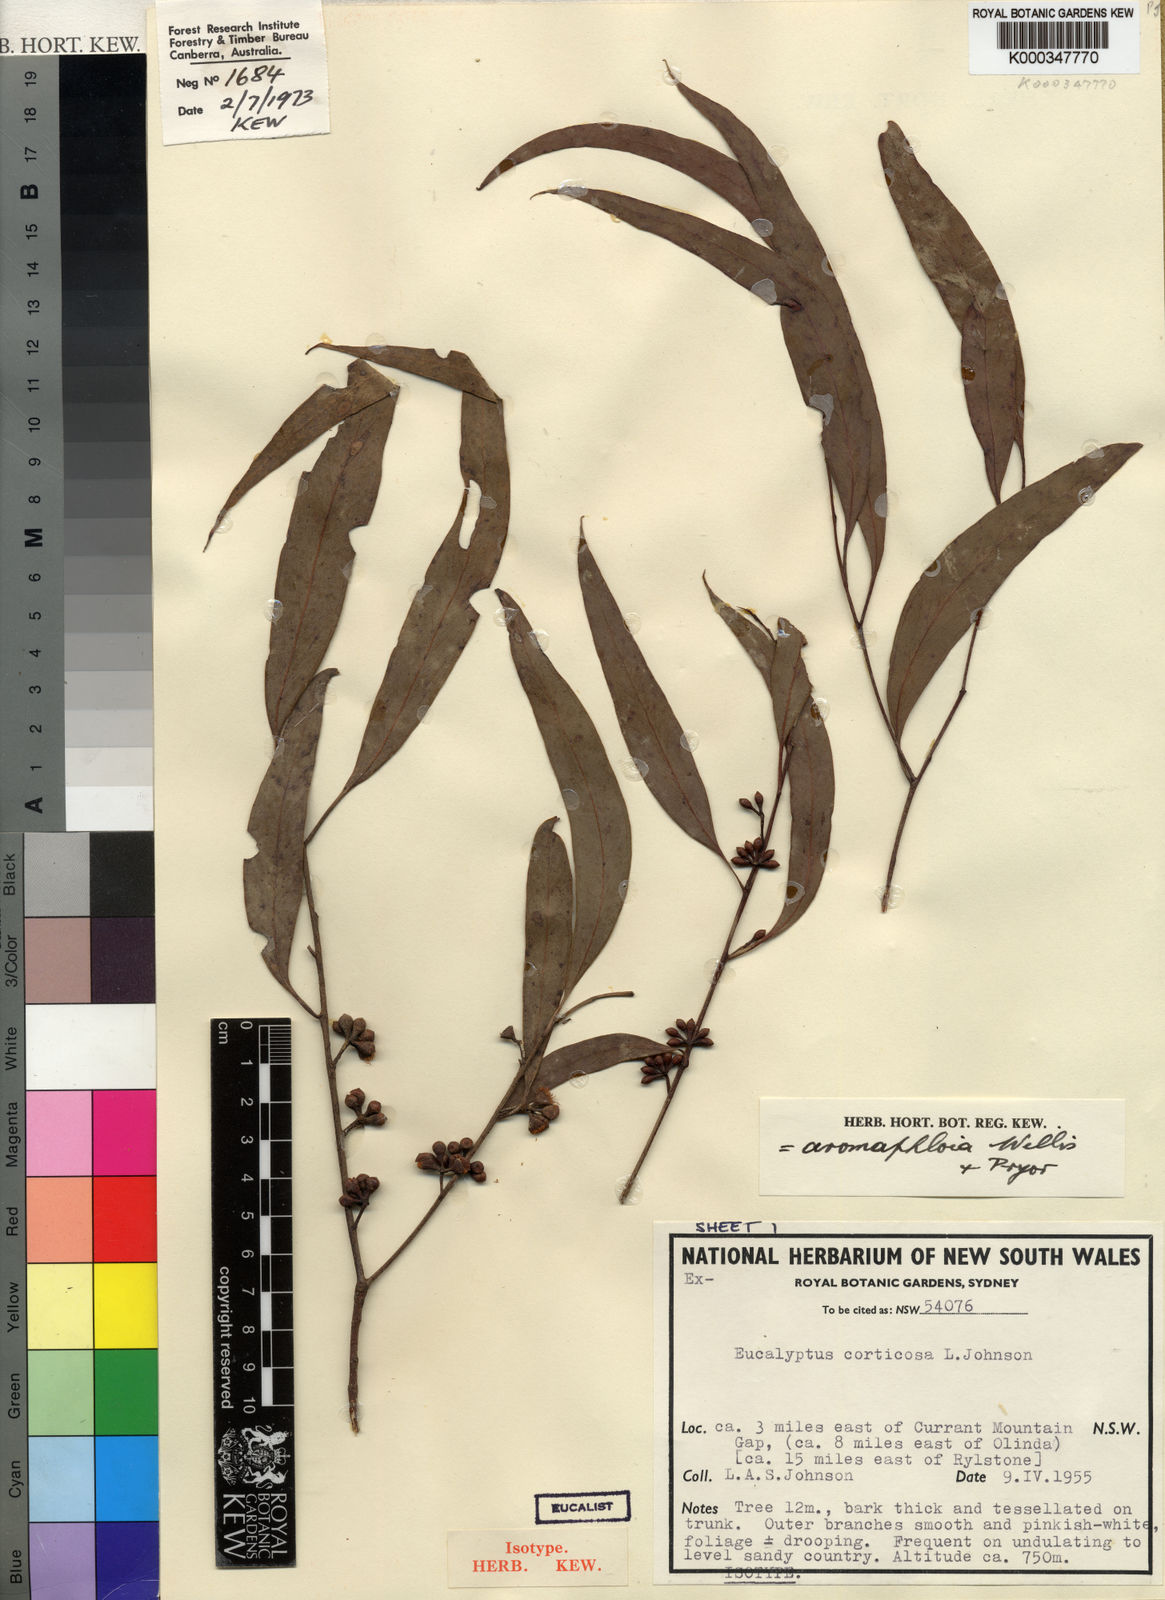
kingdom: Plantae
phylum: Tracheophyta
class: Magnoliopsida
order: Myrtales
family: Myrtaceae
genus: Eucalyptus
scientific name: Eucalyptus aromaphloia
